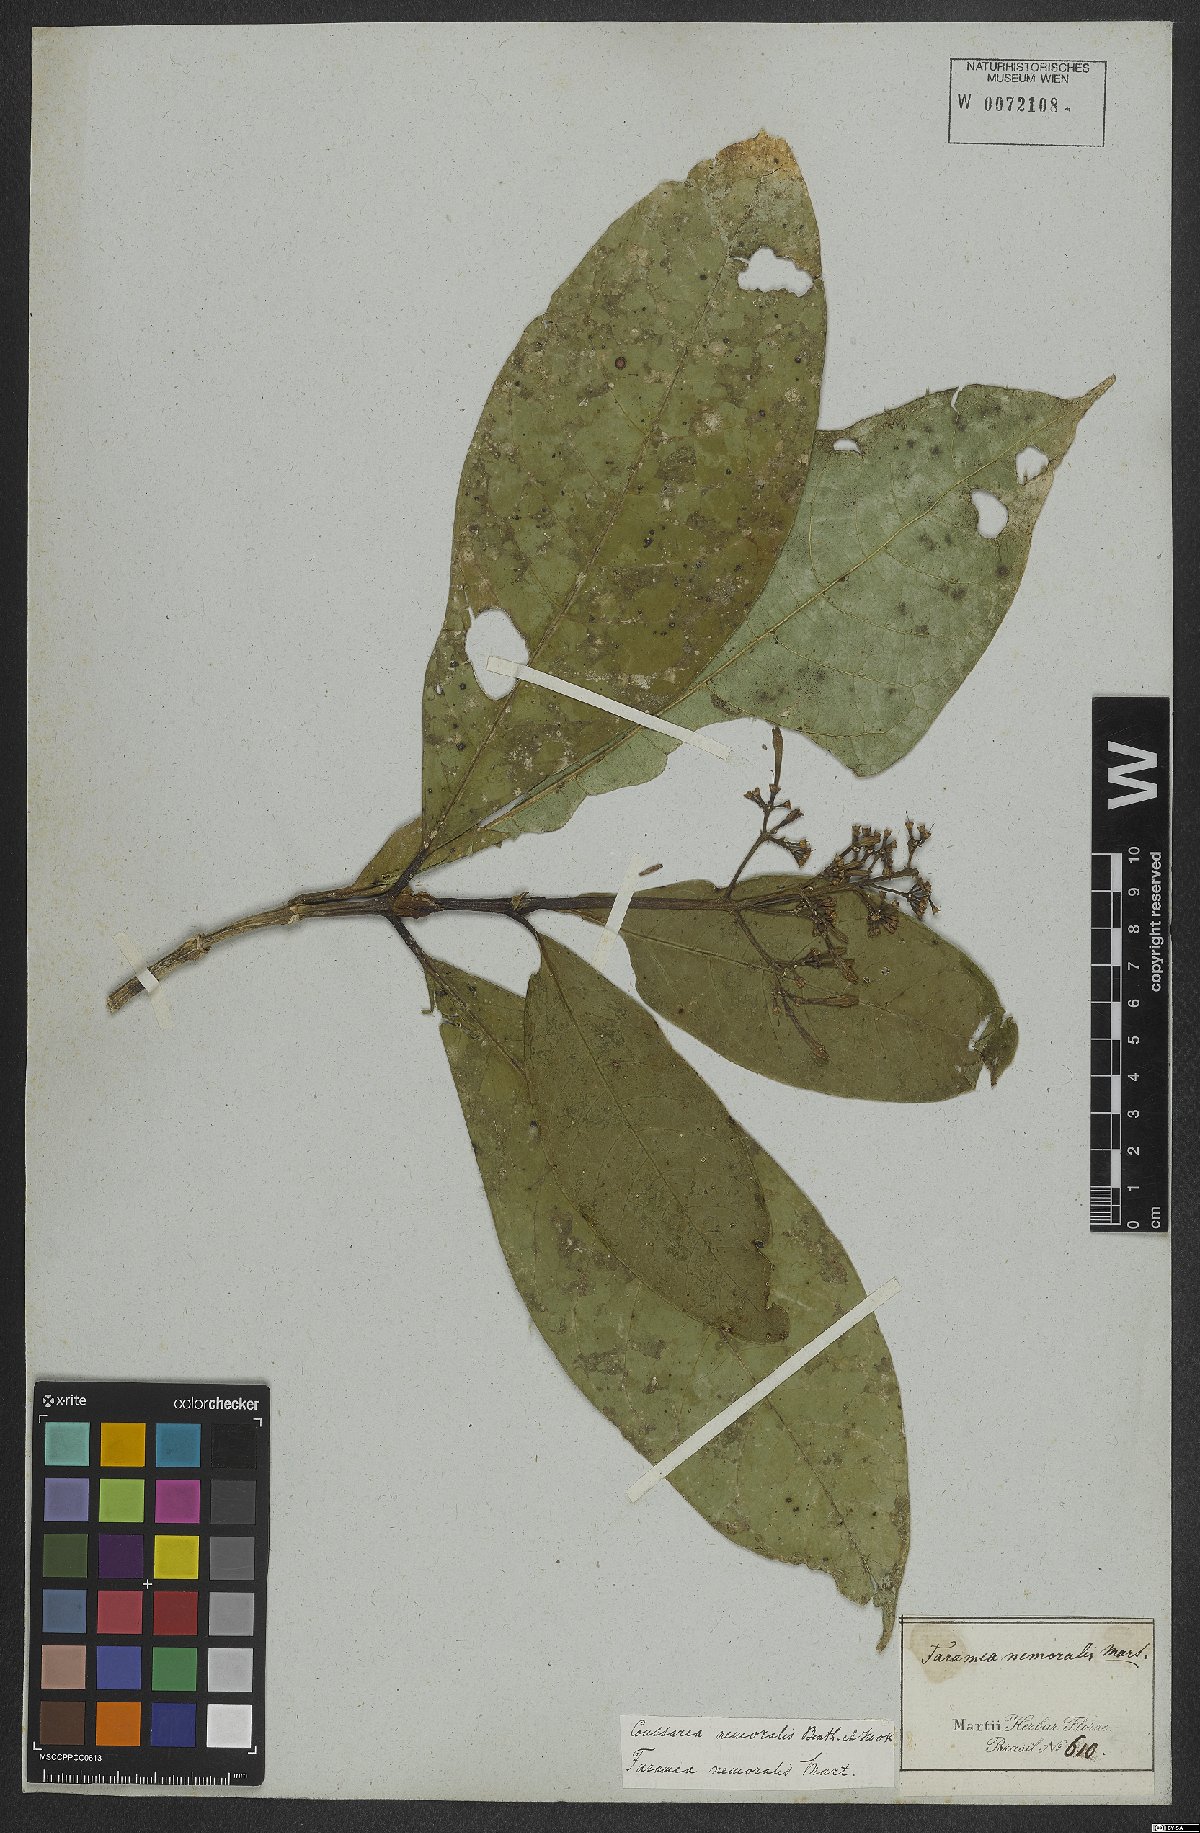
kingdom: Plantae
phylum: Tracheophyta
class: Magnoliopsida
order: Gentianales
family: Rubiaceae
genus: Coussarea
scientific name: Coussarea nemoralis
